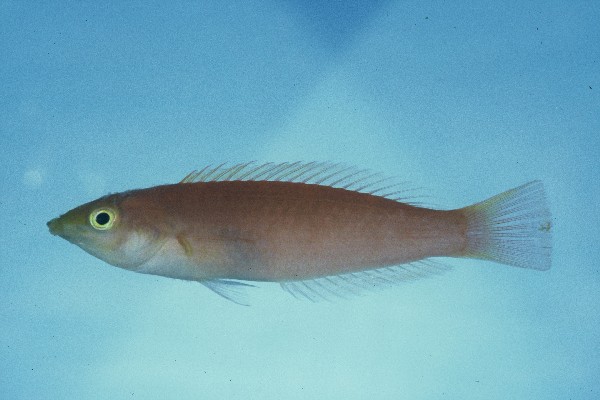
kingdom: Animalia
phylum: Chordata
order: Perciformes
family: Labridae
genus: Pseudojuloides
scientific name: Pseudojuloides cerasinus
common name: Smalltail wrasse
